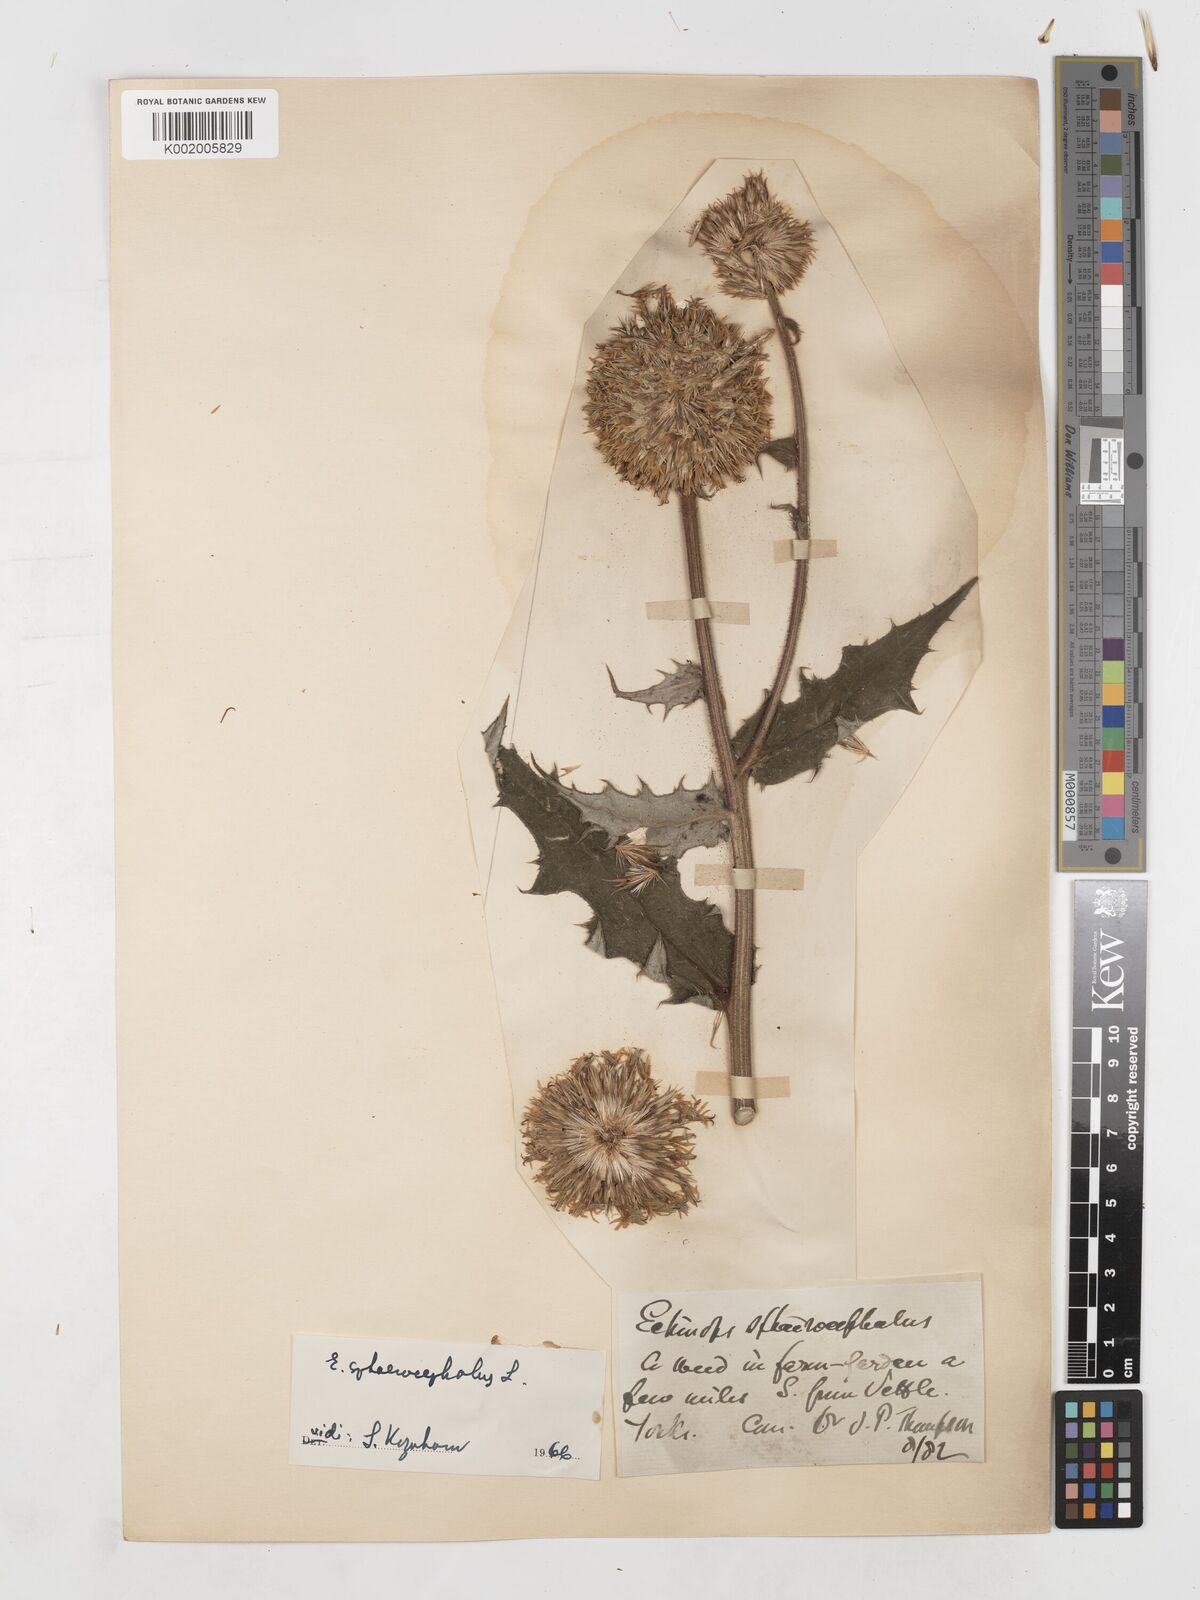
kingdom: Plantae
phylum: Tracheophyta
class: Magnoliopsida
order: Asterales
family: Asteraceae
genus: Echinops
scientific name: Echinops sphaerocephalus
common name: Glandular globe-thistle
